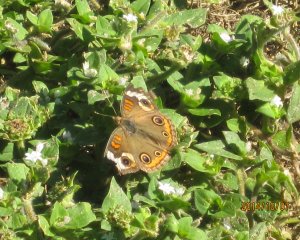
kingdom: Animalia
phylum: Arthropoda
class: Insecta
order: Lepidoptera
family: Nymphalidae
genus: Junonia
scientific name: Junonia coenia
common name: Common Buckeye
